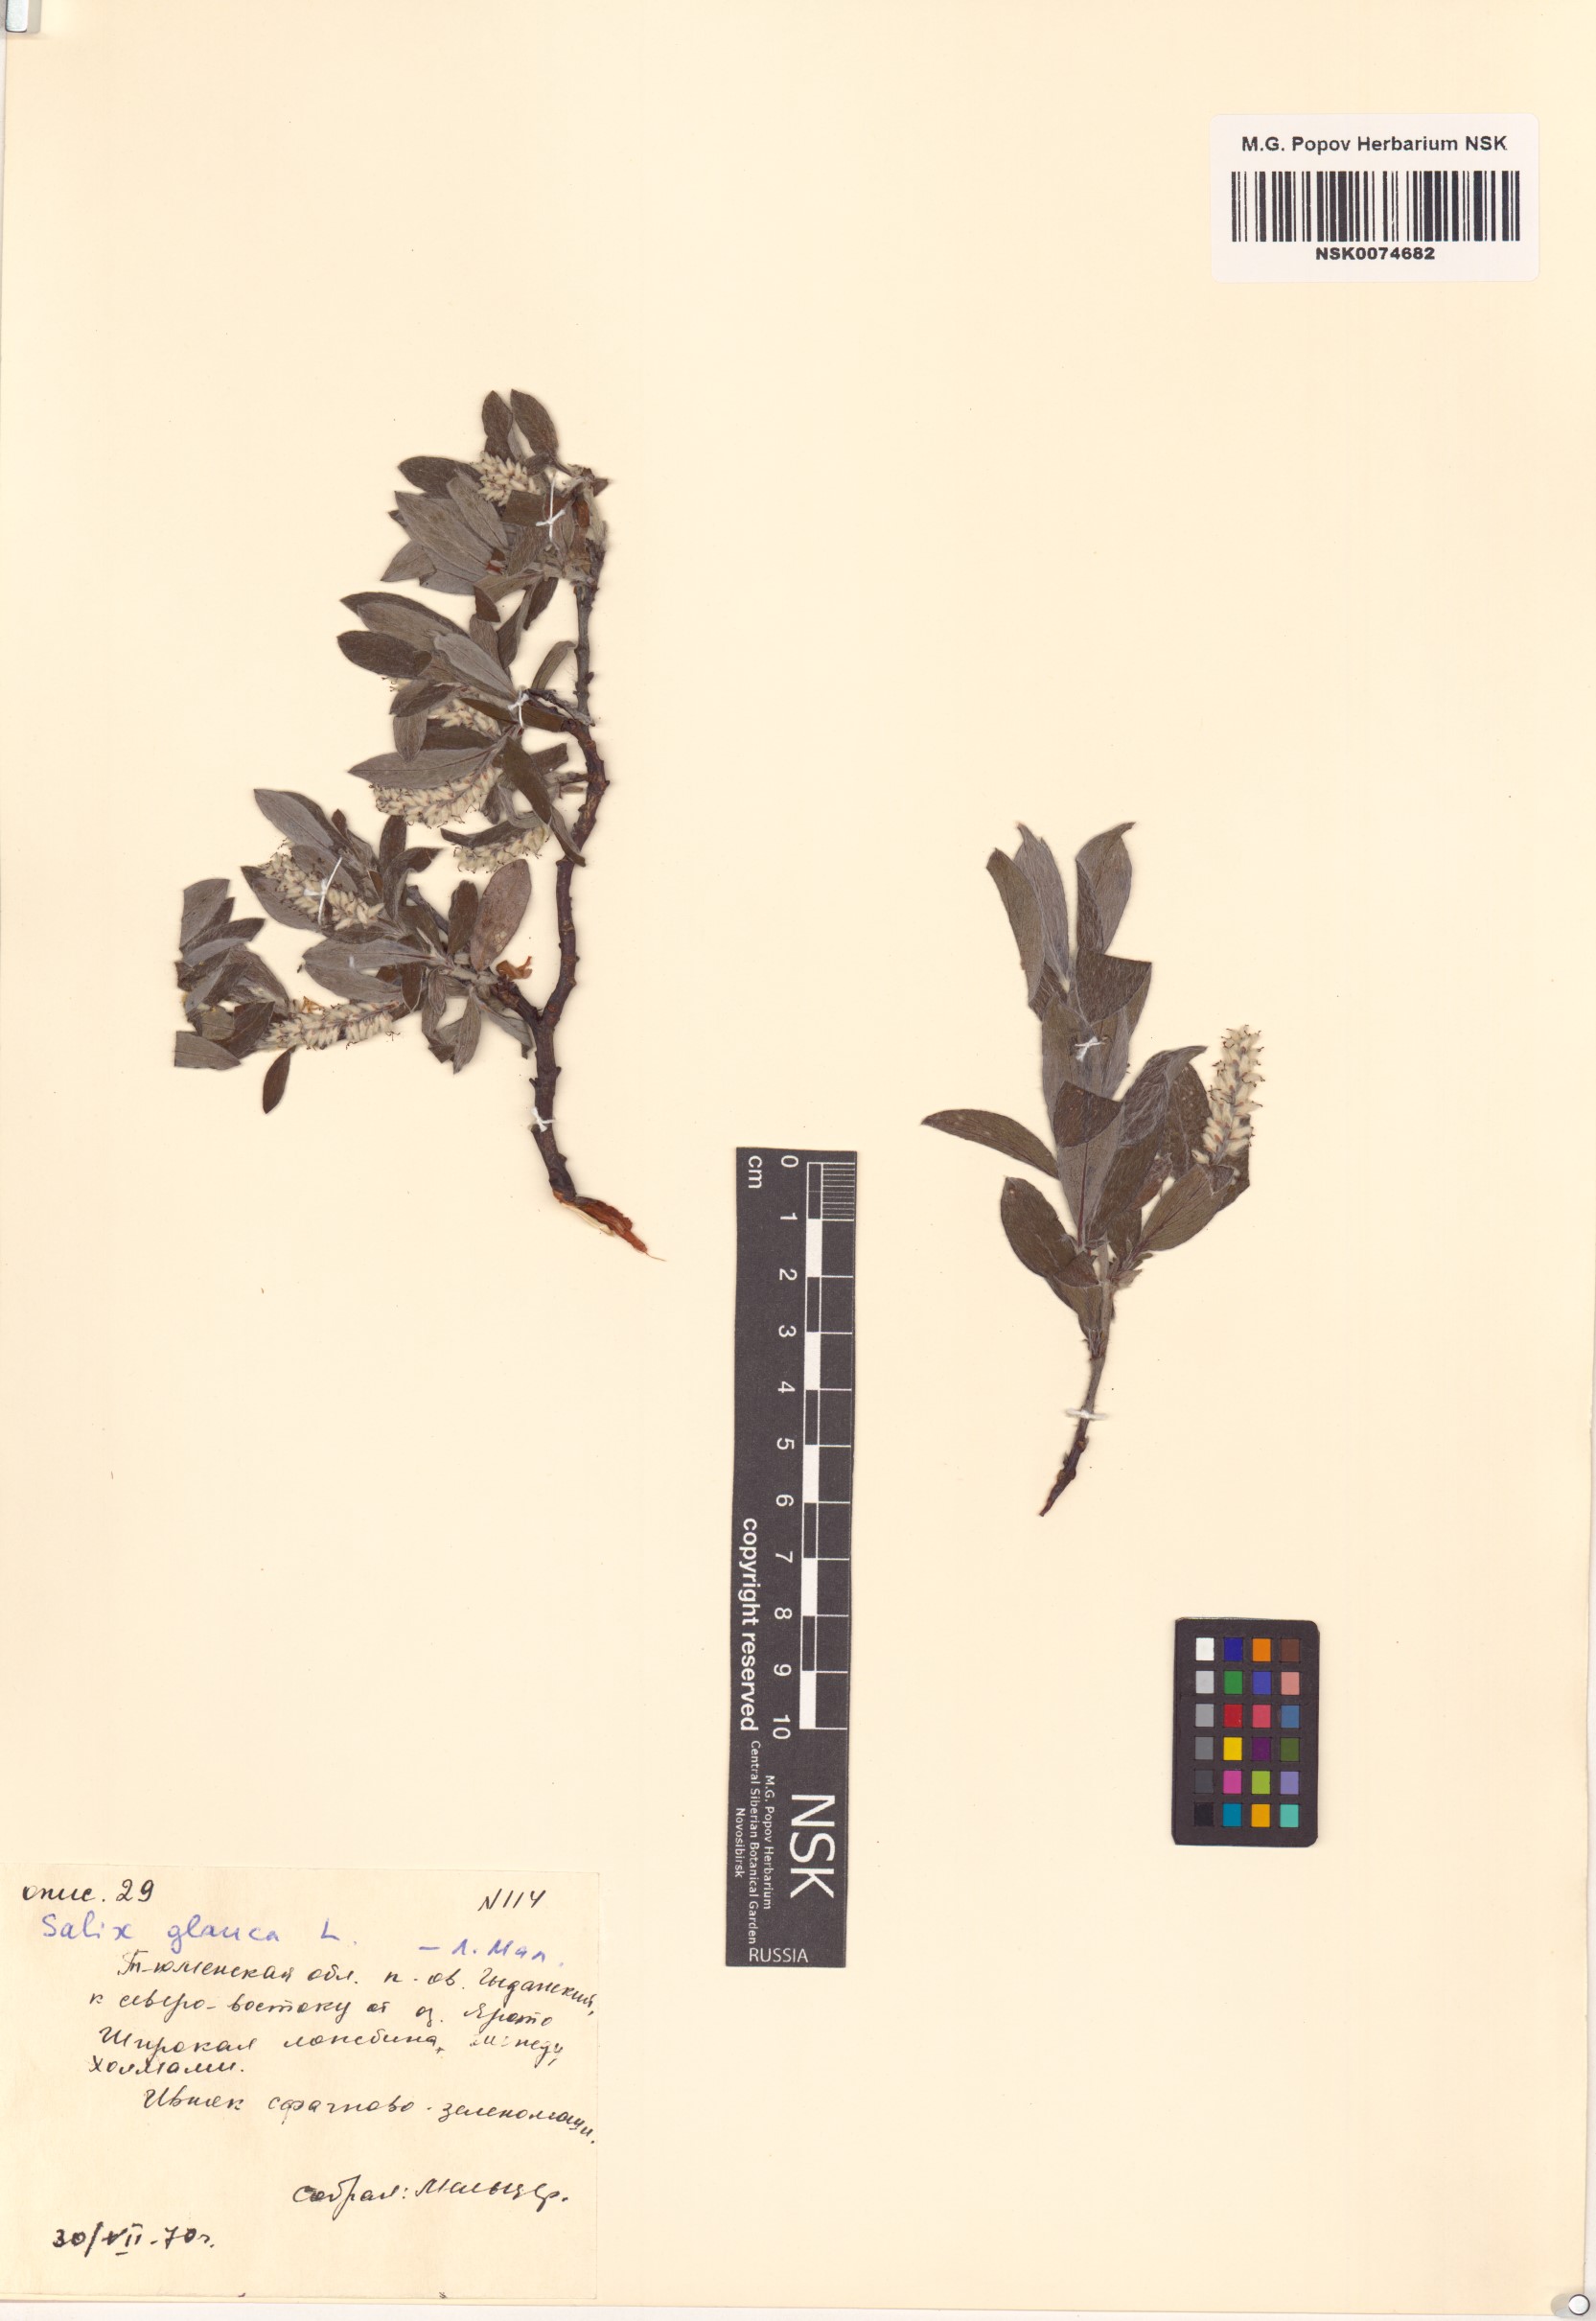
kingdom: Plantae
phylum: Tracheophyta
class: Magnoliopsida
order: Malpighiales
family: Salicaceae
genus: Salix
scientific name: Salix glauca
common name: Glaucous willow
